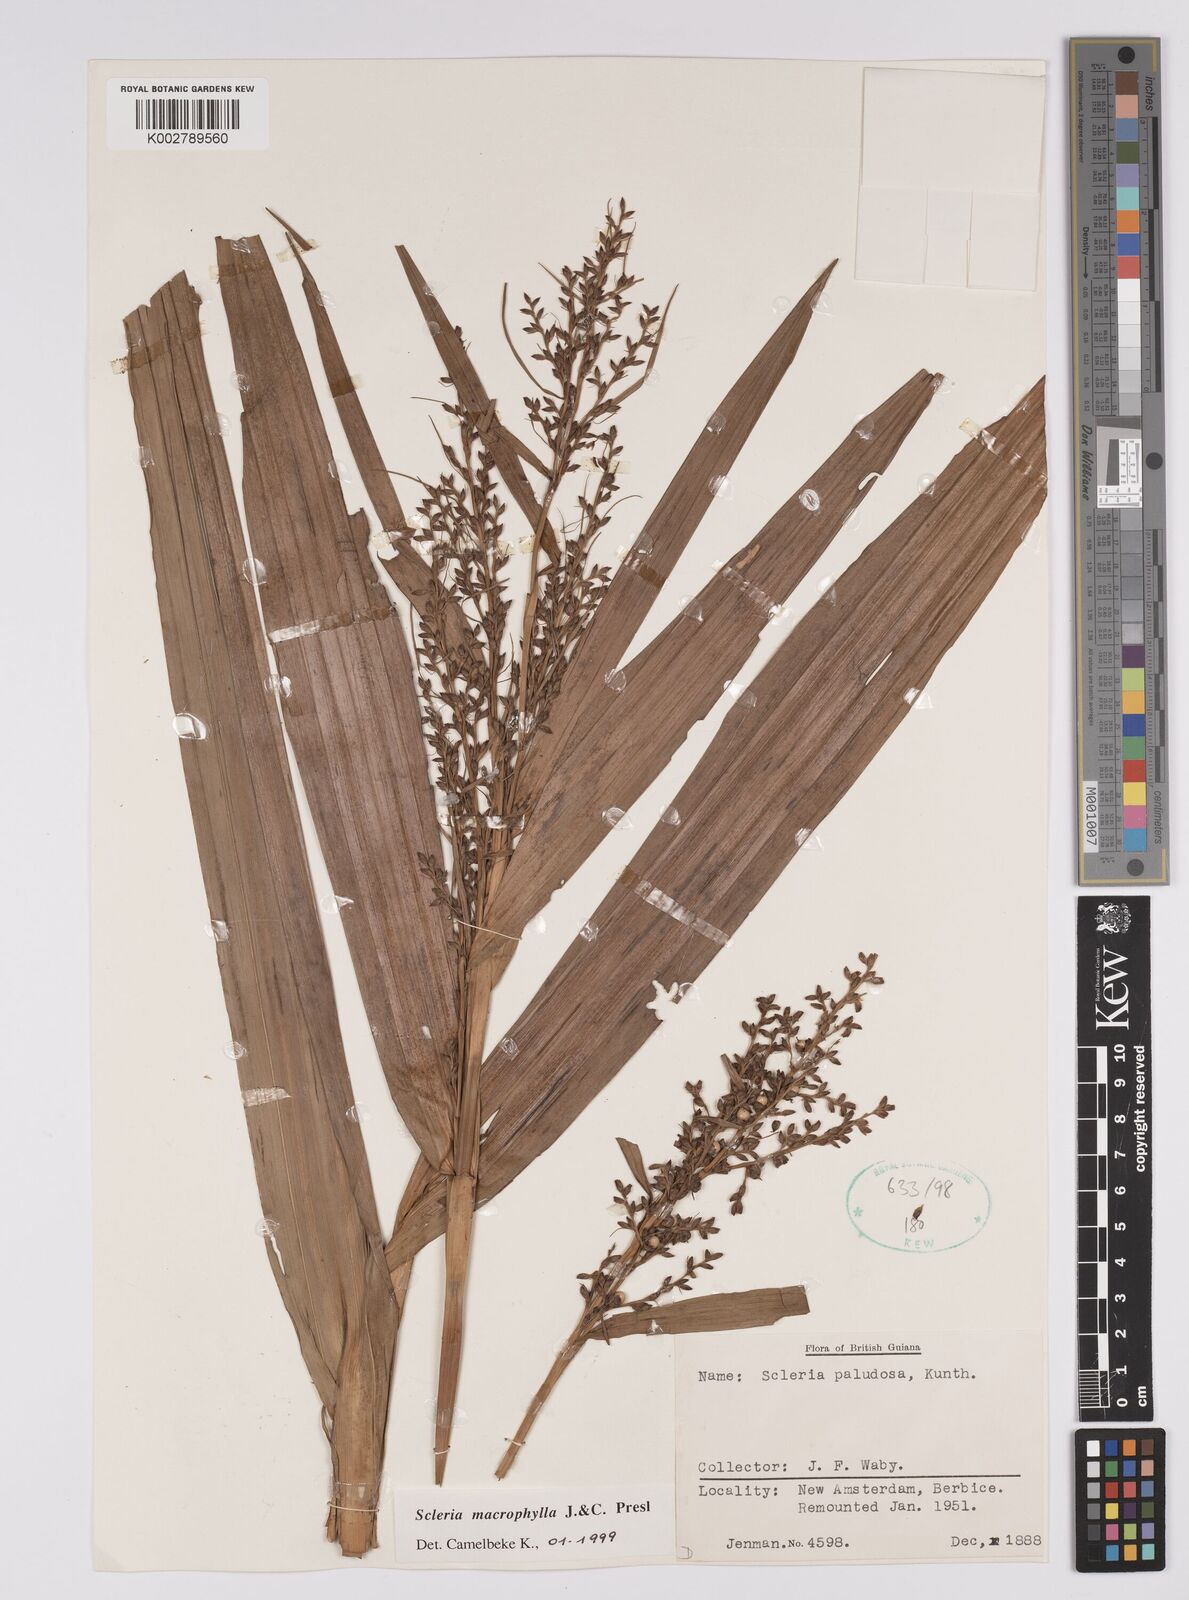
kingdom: Plantae
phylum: Tracheophyta
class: Liliopsida
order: Poales
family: Cyperaceae
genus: Scleria
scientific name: Scleria macrophylla
